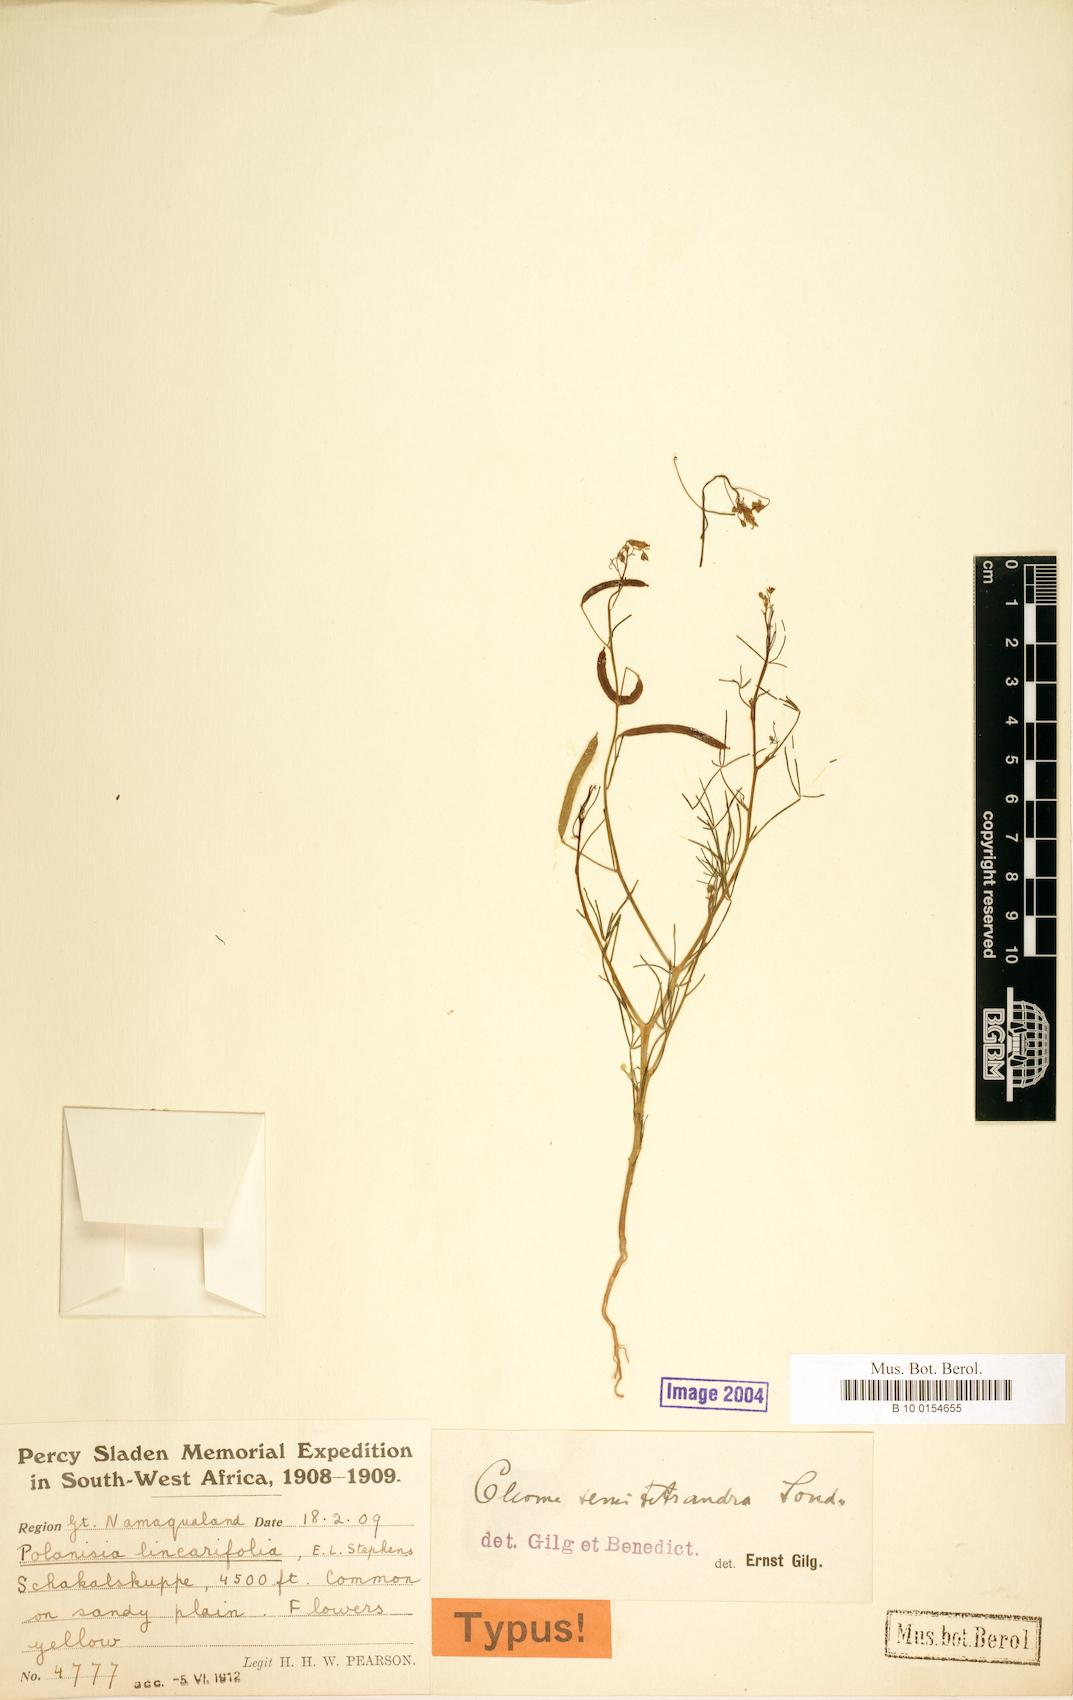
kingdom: Plantae
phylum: Tracheophyta
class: Magnoliopsida
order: Brassicales
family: Cleomaceae
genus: Coalisina
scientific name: Coalisina semitetrandra
